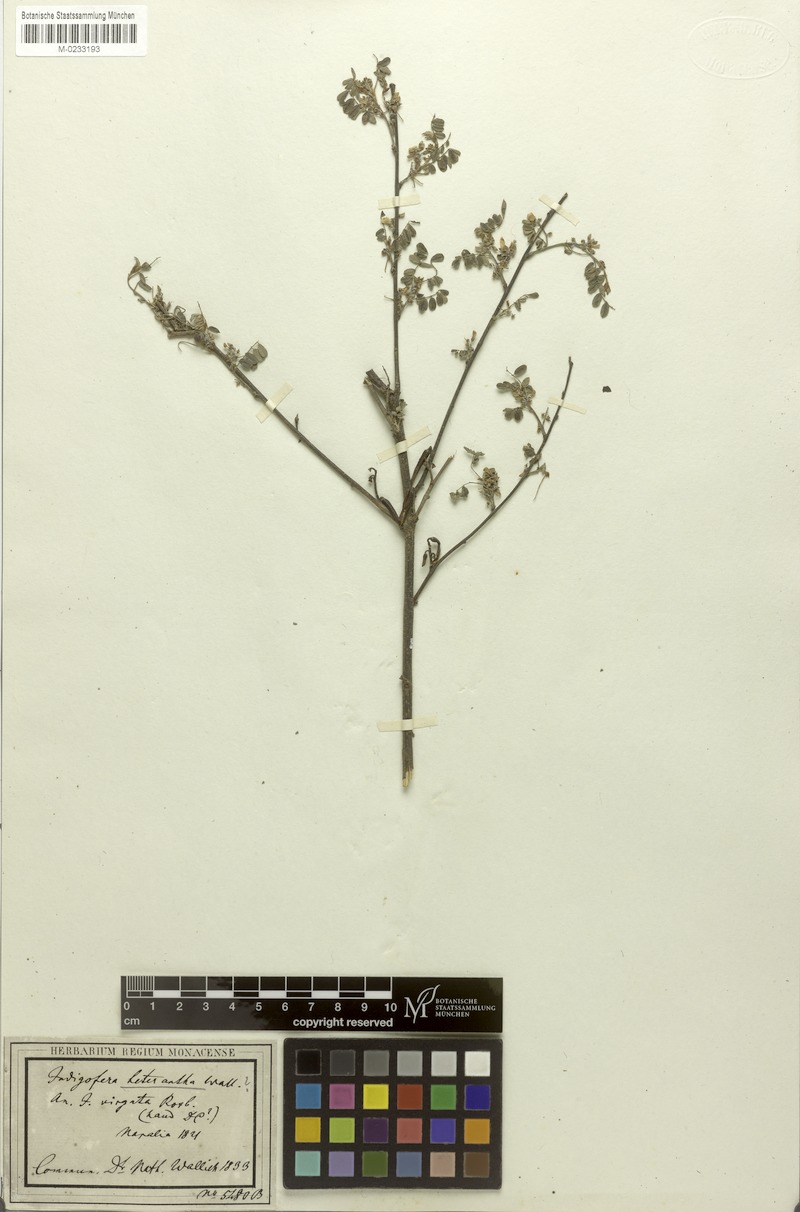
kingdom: Plantae
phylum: Tracheophyta
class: Magnoliopsida
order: Fabales
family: Fabaceae
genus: Indigofera
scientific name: Indigofera heterantha
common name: Himalayan indigo
